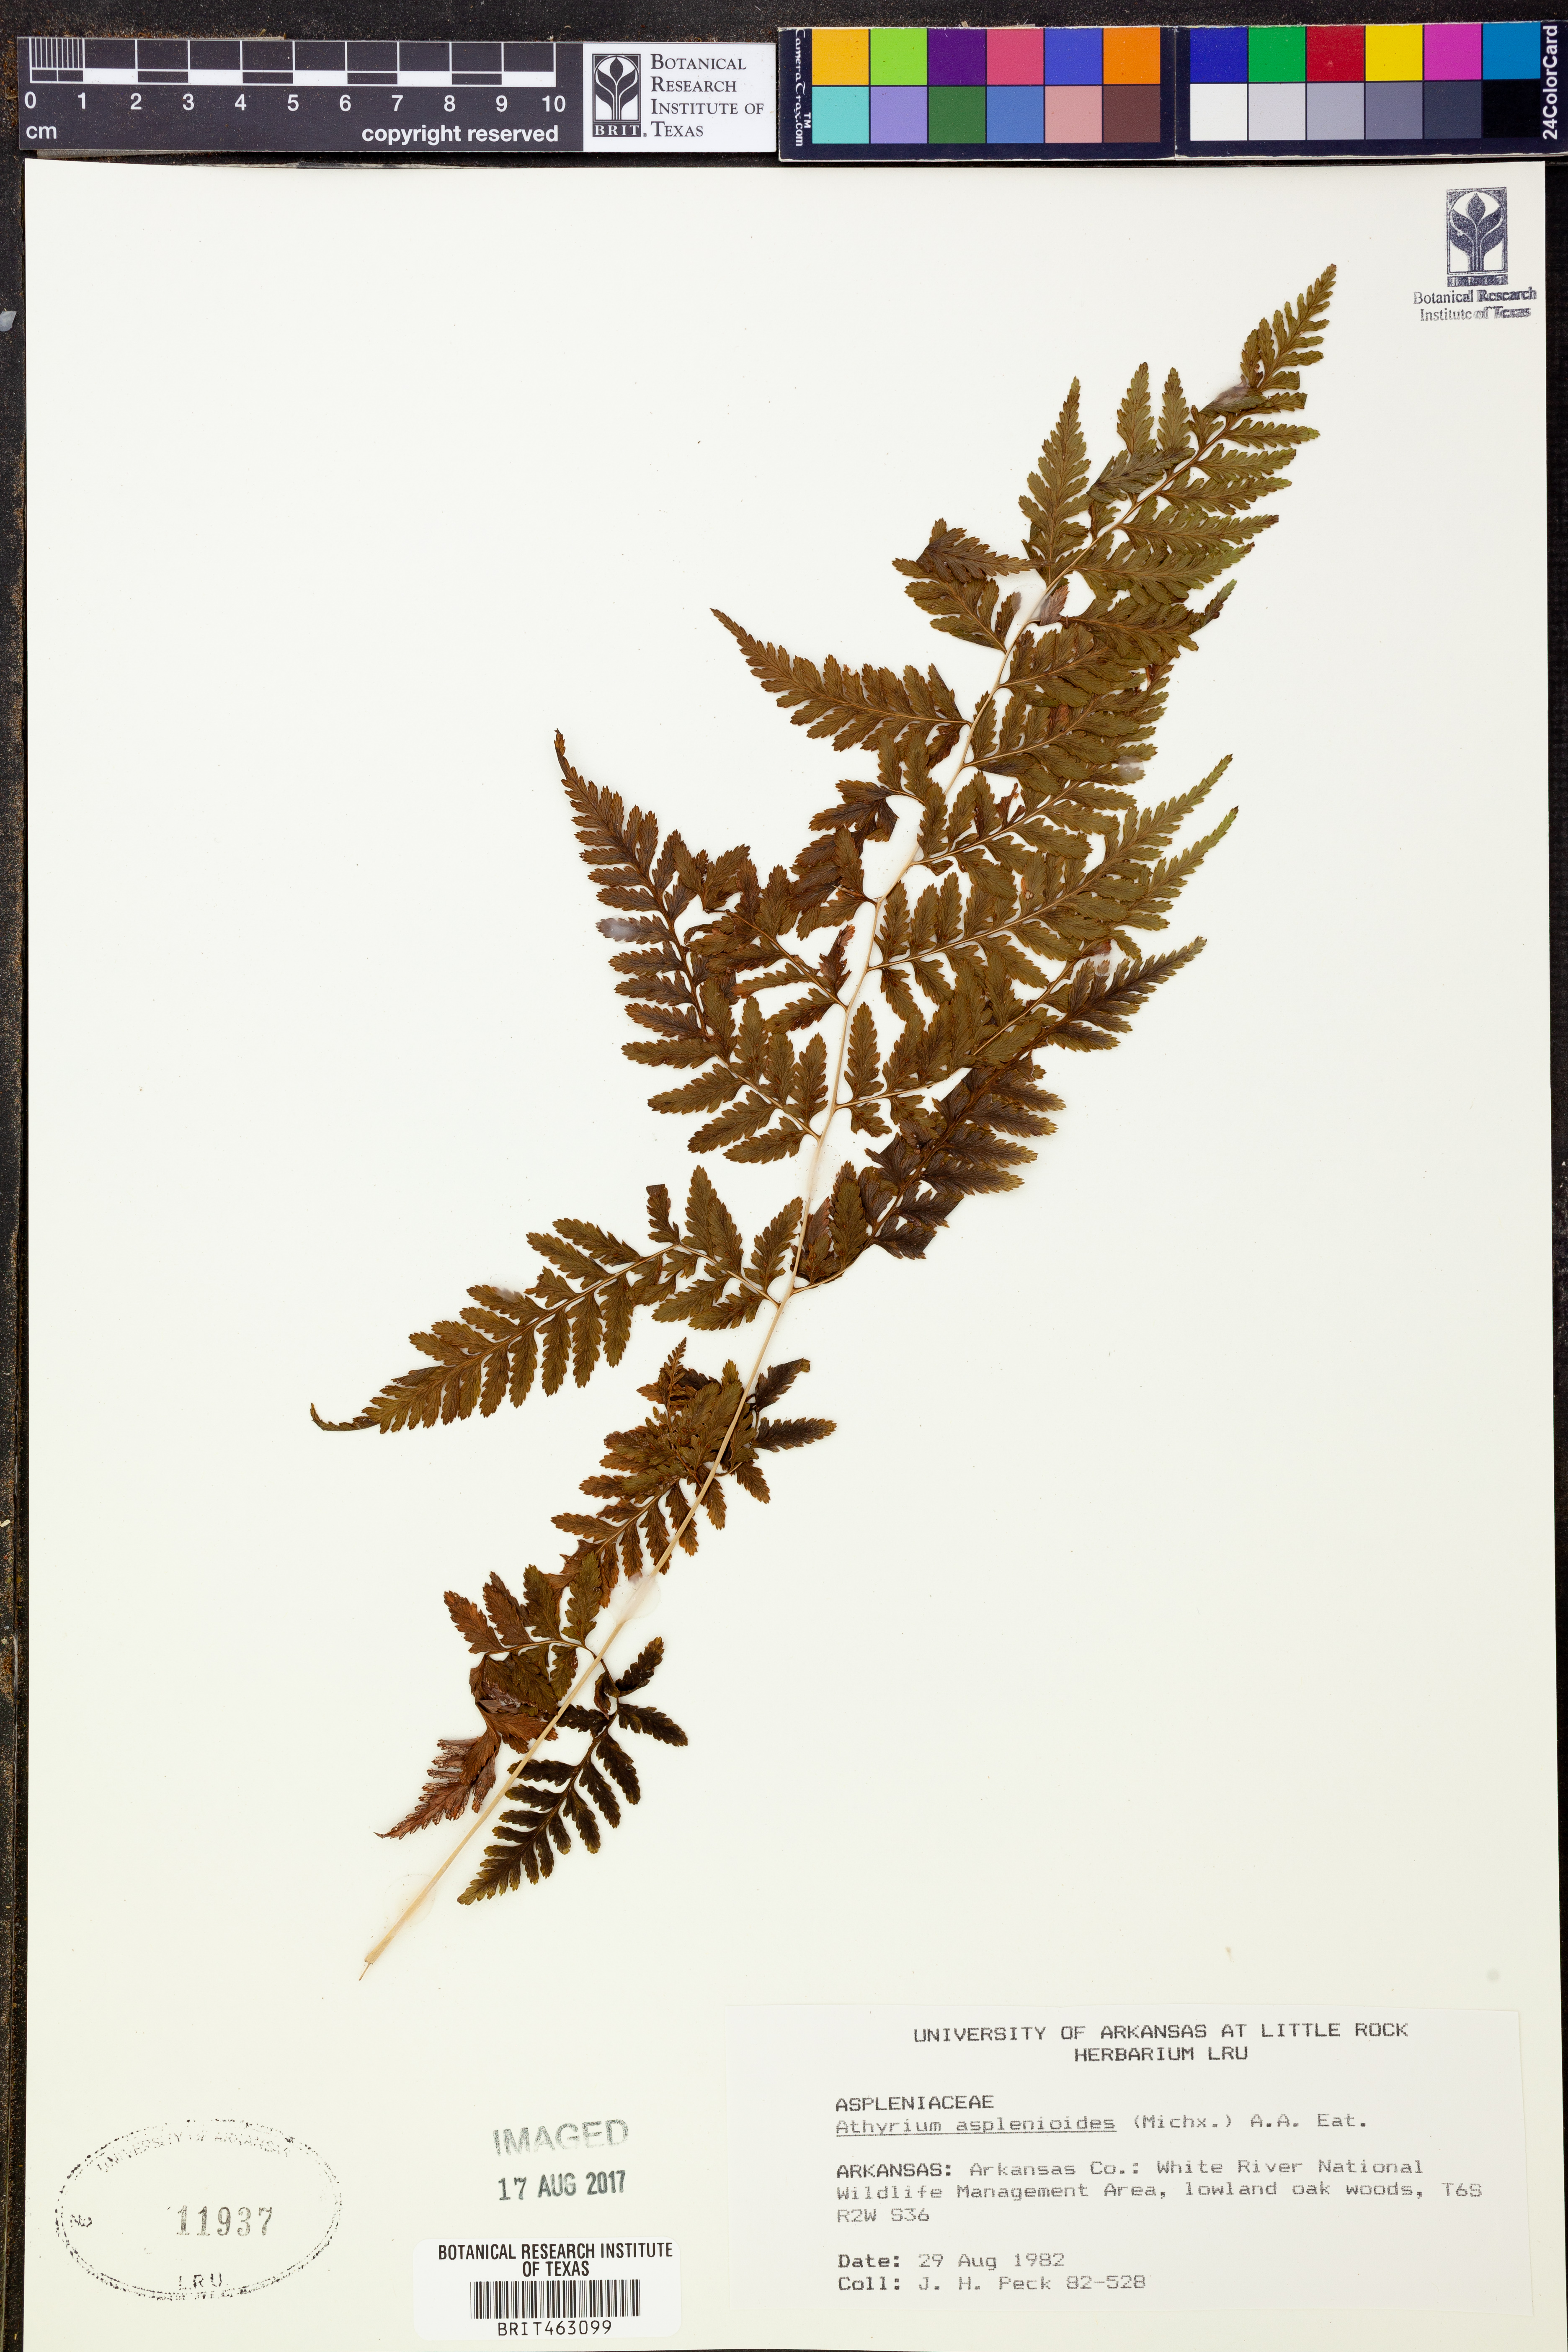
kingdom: Plantae
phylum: Tracheophyta
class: Polypodiopsida
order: Polypodiales
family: Athyriaceae
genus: Athyrium
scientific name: Athyrium asplenioides
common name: Southern lady fern
